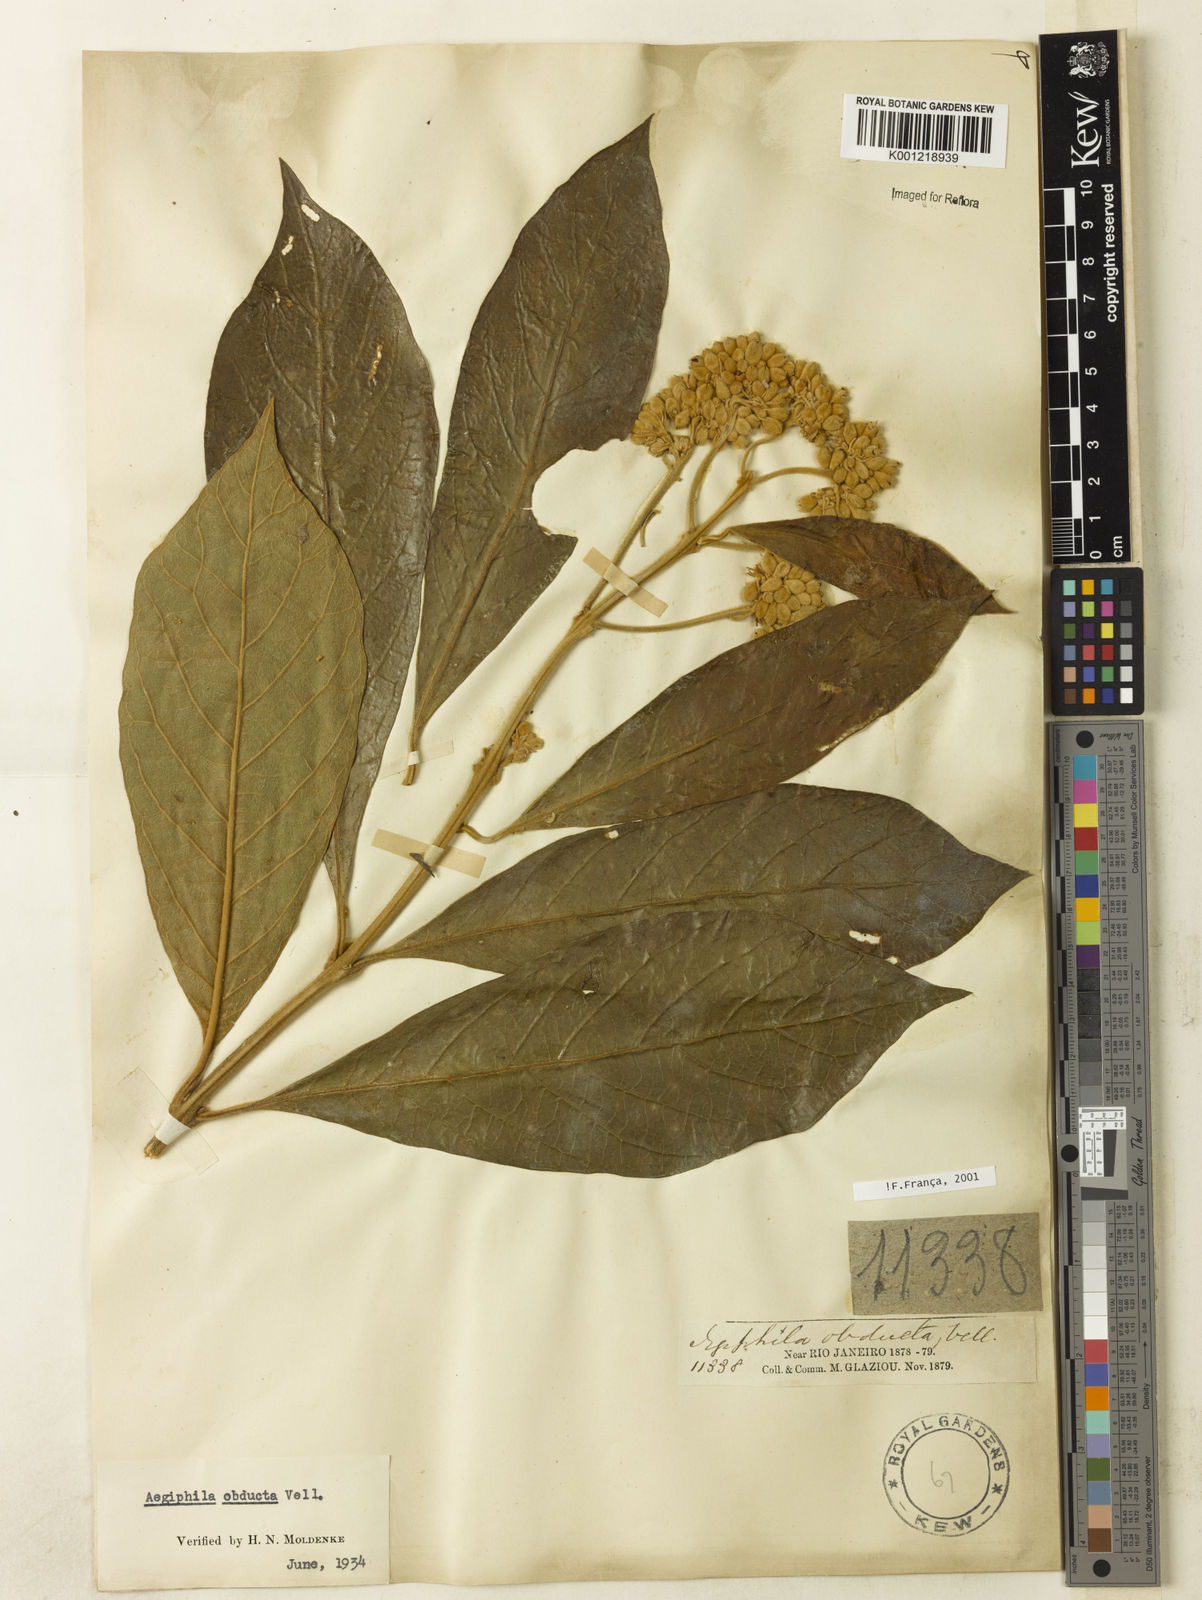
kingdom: Plantae
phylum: Tracheophyta
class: Magnoliopsida
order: Lamiales
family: Lamiaceae
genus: Aegiphila
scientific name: Aegiphila obducta
